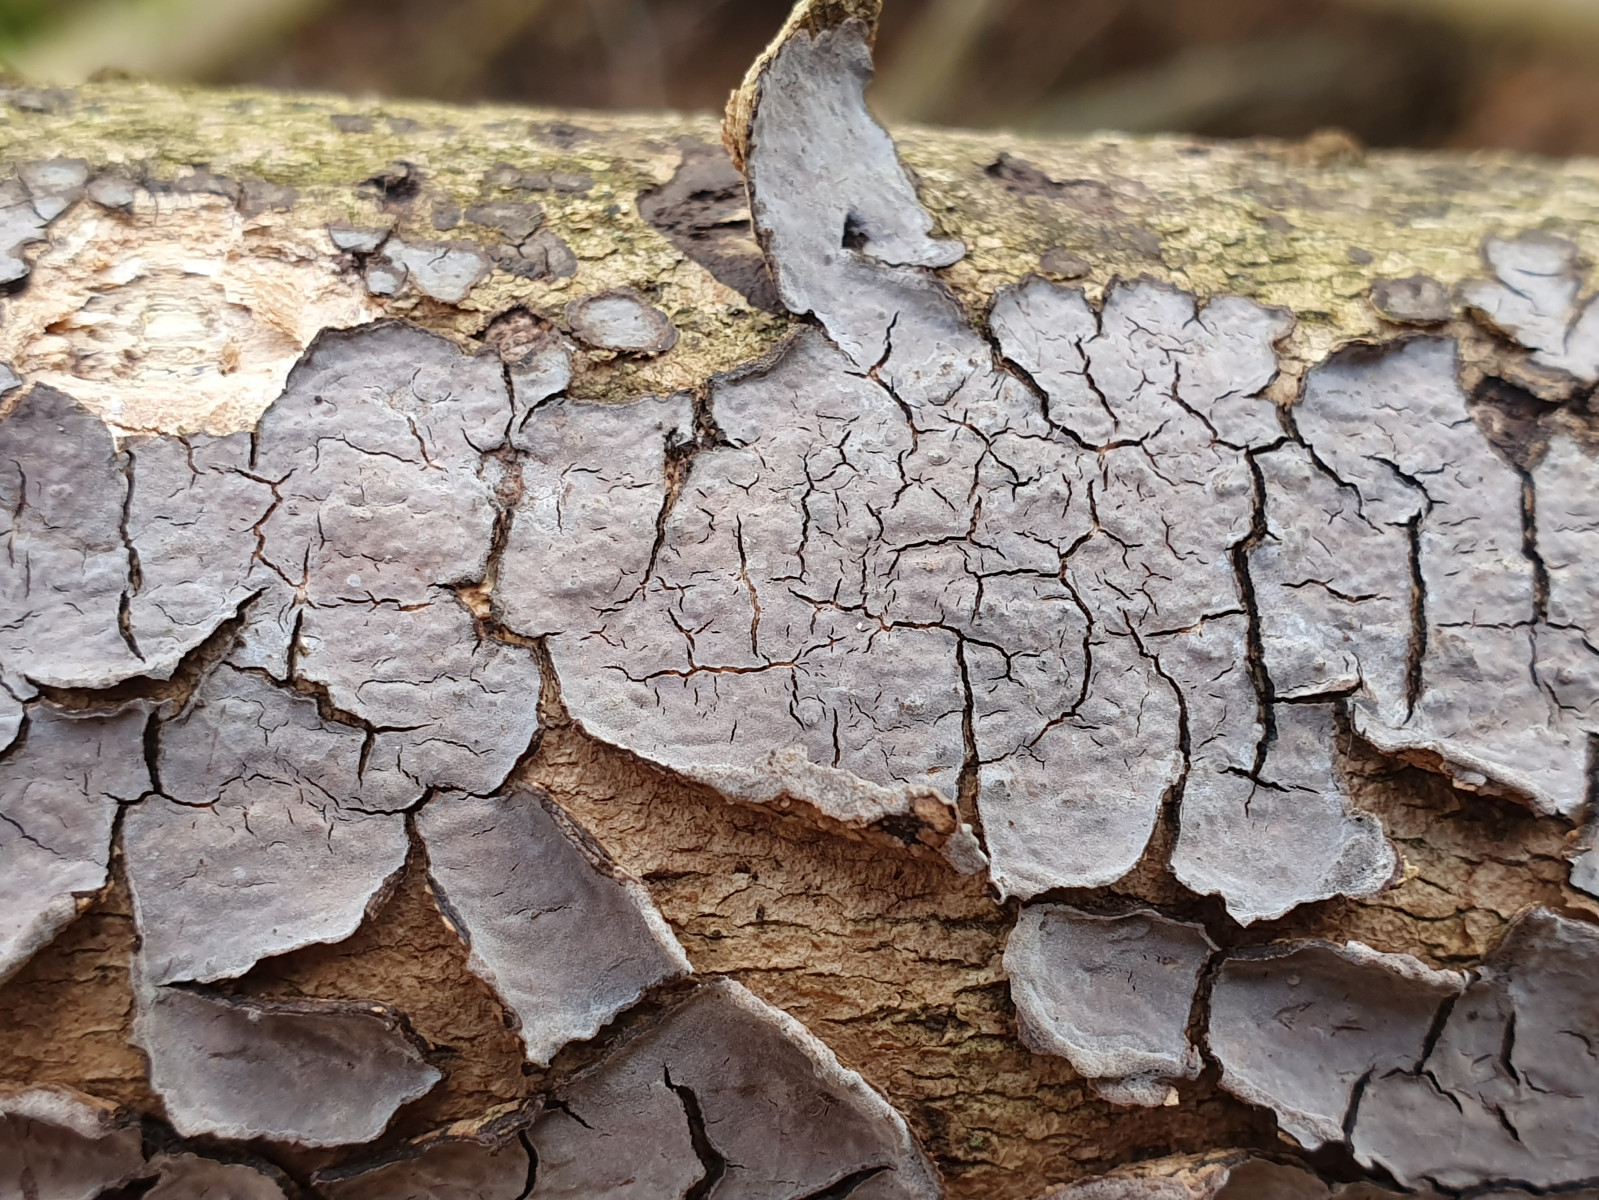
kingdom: Fungi
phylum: Basidiomycota
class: Agaricomycetes
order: Russulales
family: Peniophoraceae
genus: Peniophora
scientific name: Peniophora limitata
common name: mørkrandet voksskind
